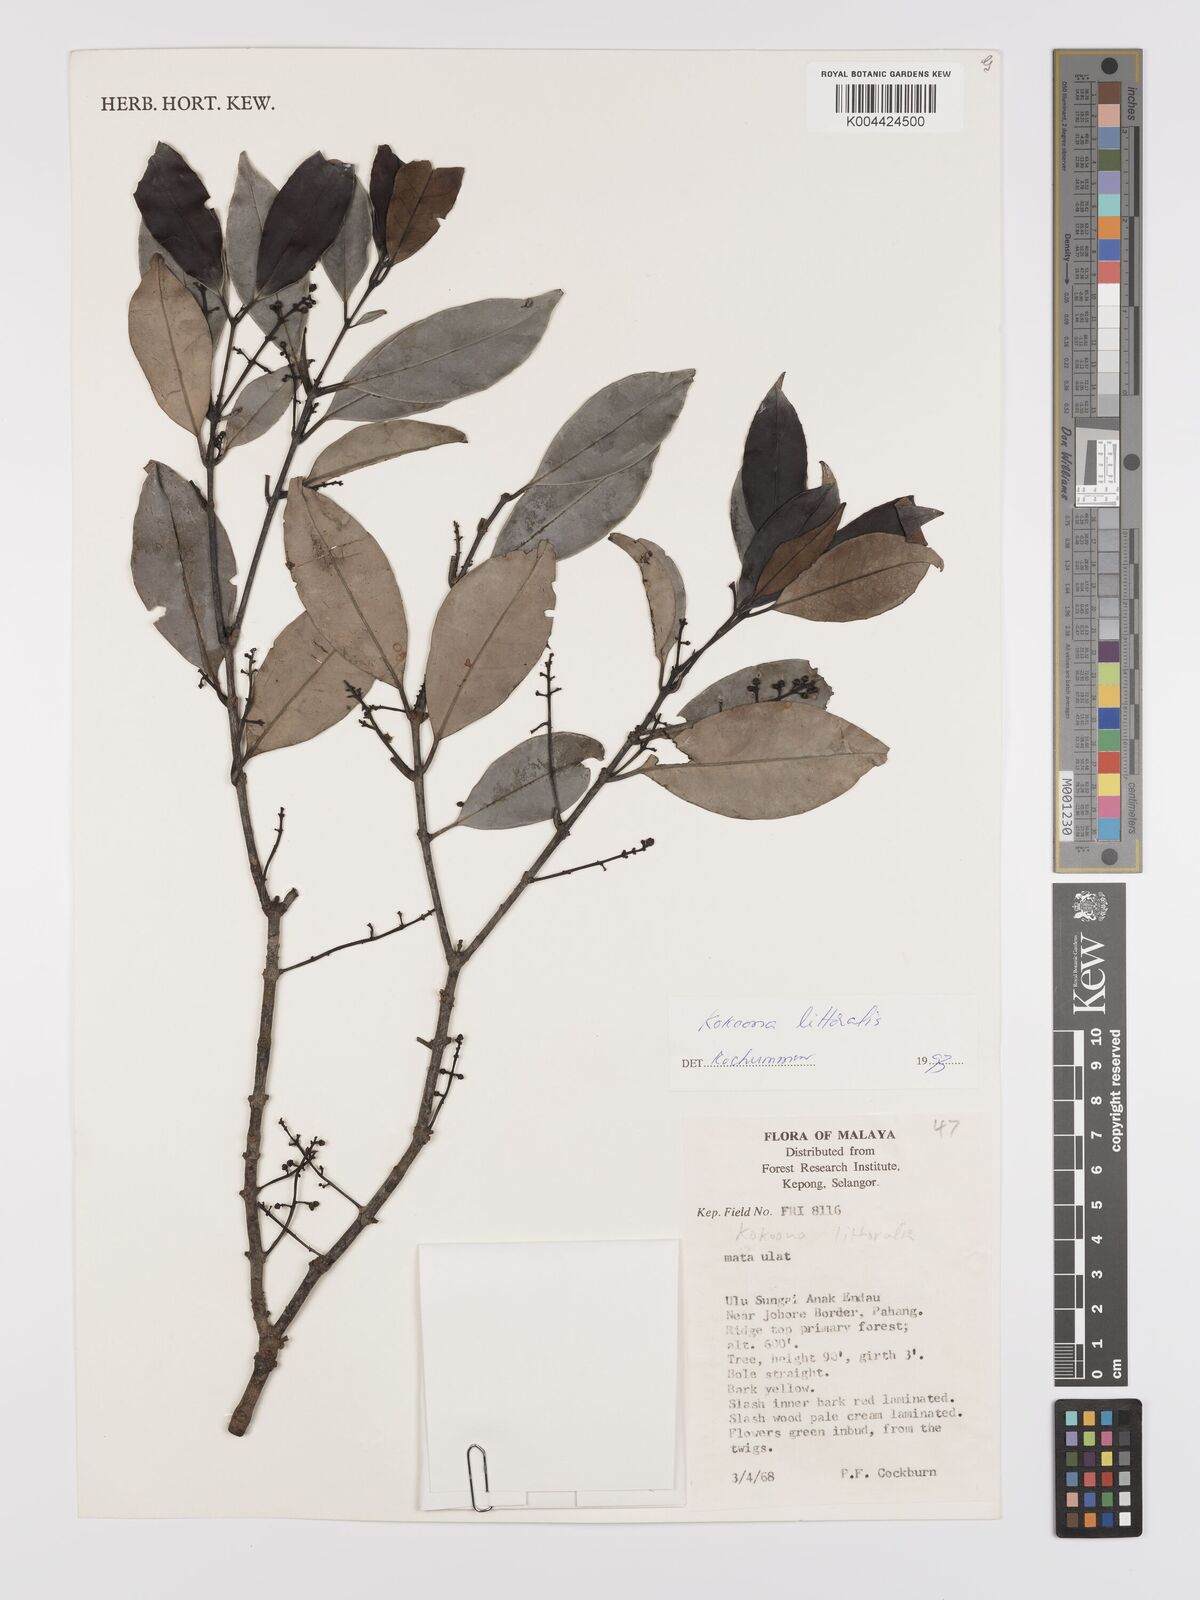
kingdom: Plantae
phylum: Tracheophyta
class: Magnoliopsida
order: Celastrales
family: Celastraceae
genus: Kokoona
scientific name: Kokoona littoralis
